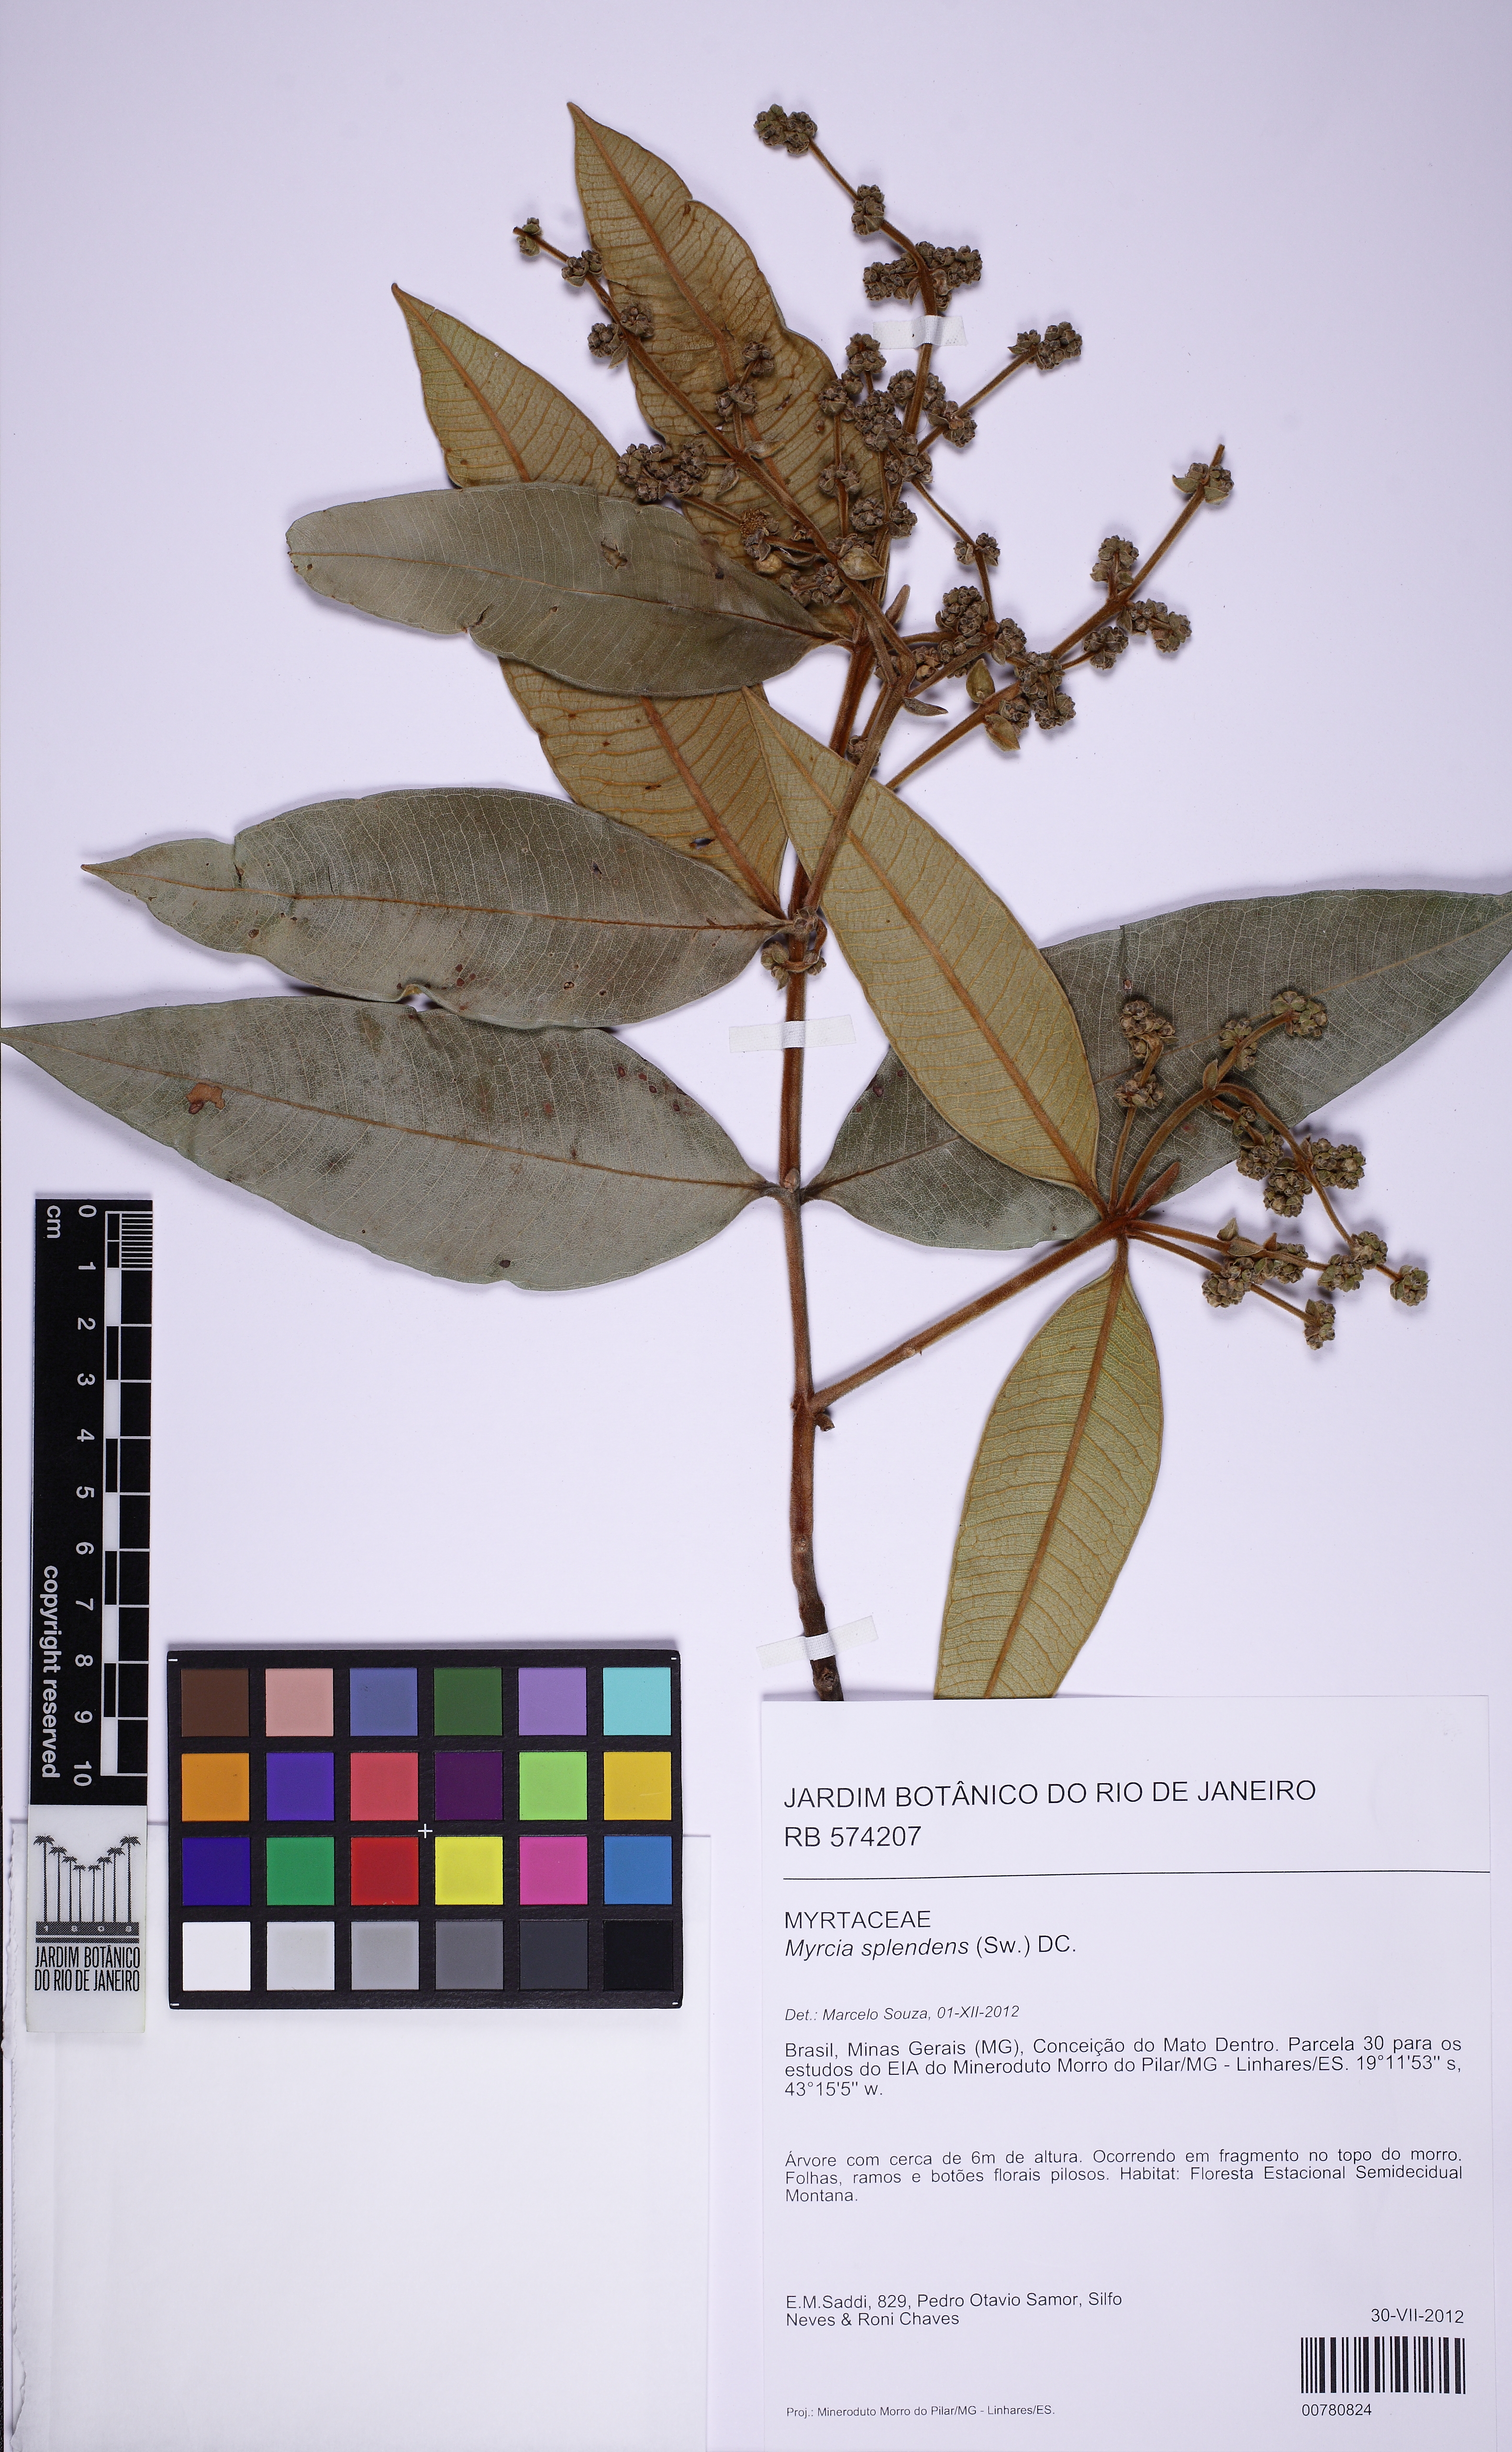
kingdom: Plantae
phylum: Tracheophyta
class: Magnoliopsida
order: Myrtales
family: Myrtaceae
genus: Myrcia
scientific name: Myrcia splendens
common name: Surinam cherry
